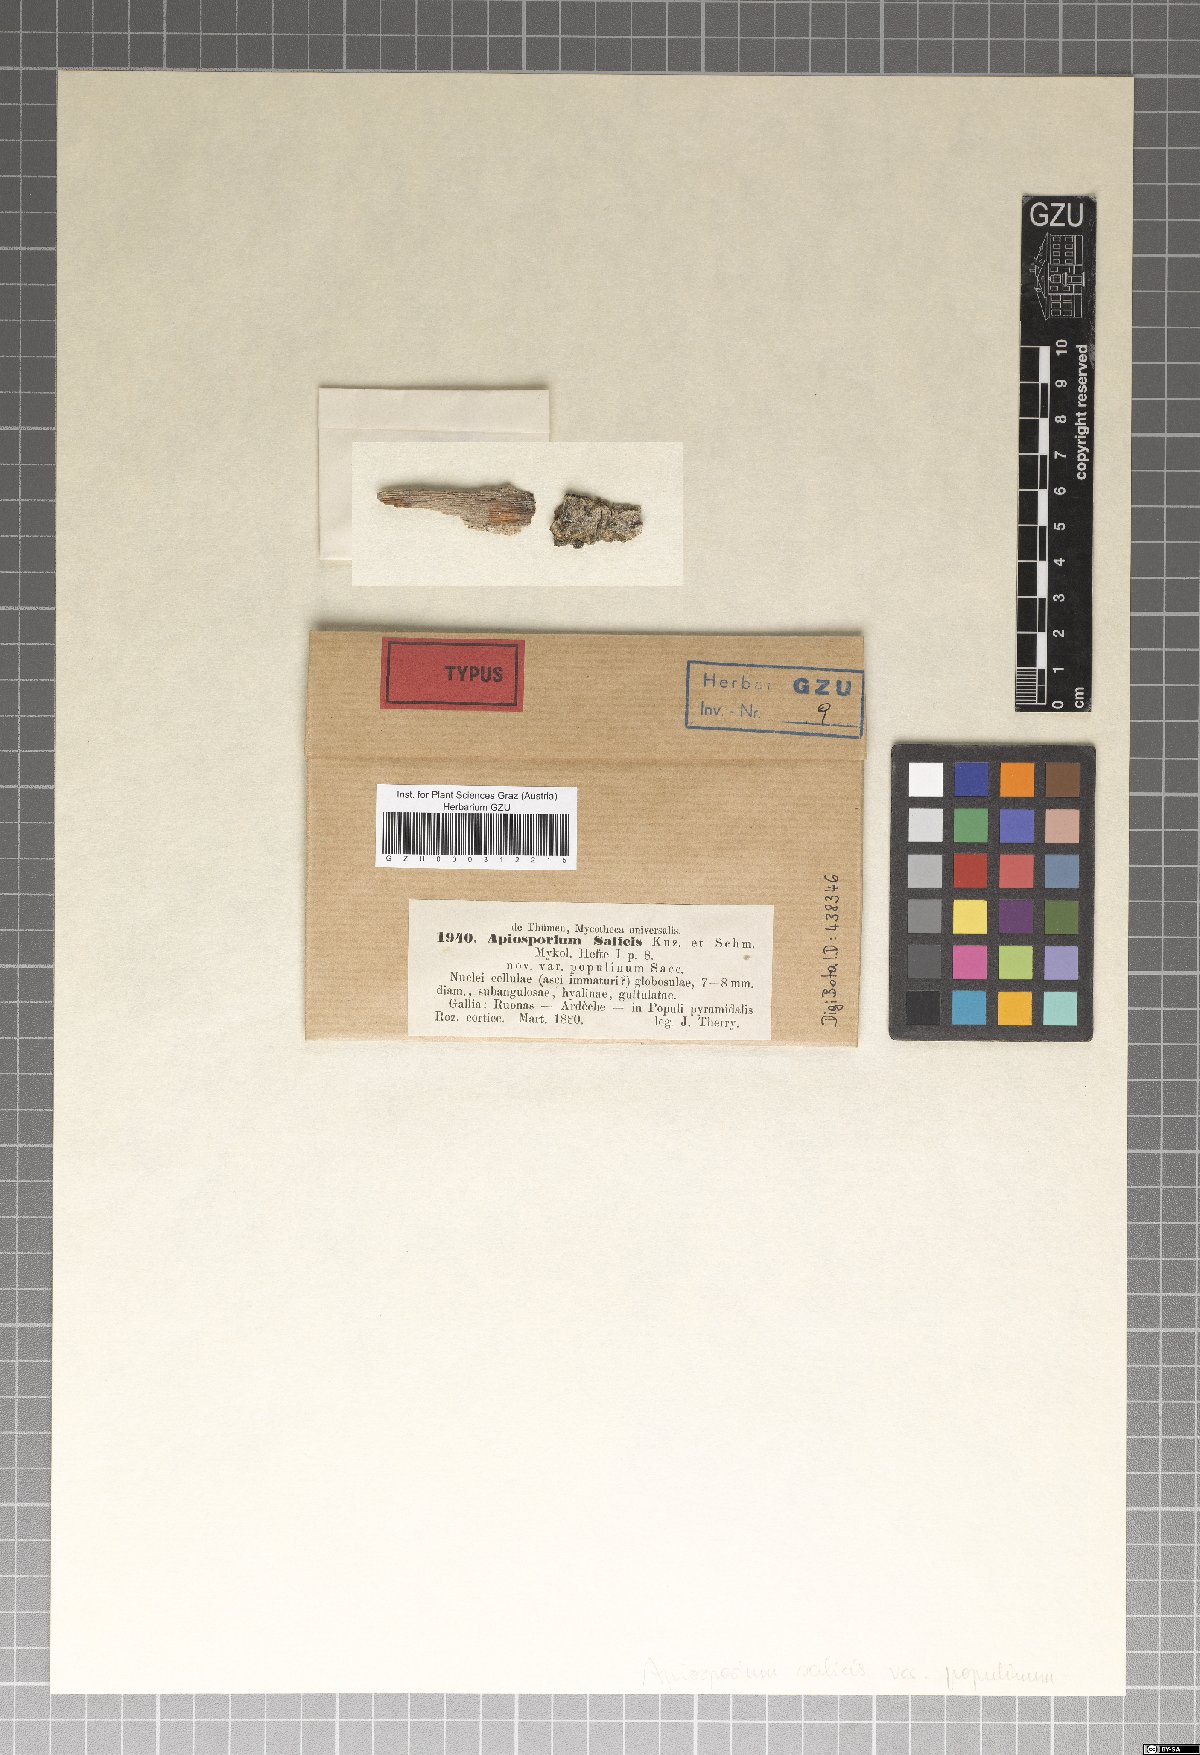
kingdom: Fungi
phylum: Ascomycota
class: Dothideomycetes
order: Capnodiales
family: Capnodiaceae
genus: Capnodium
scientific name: Capnodium citri
